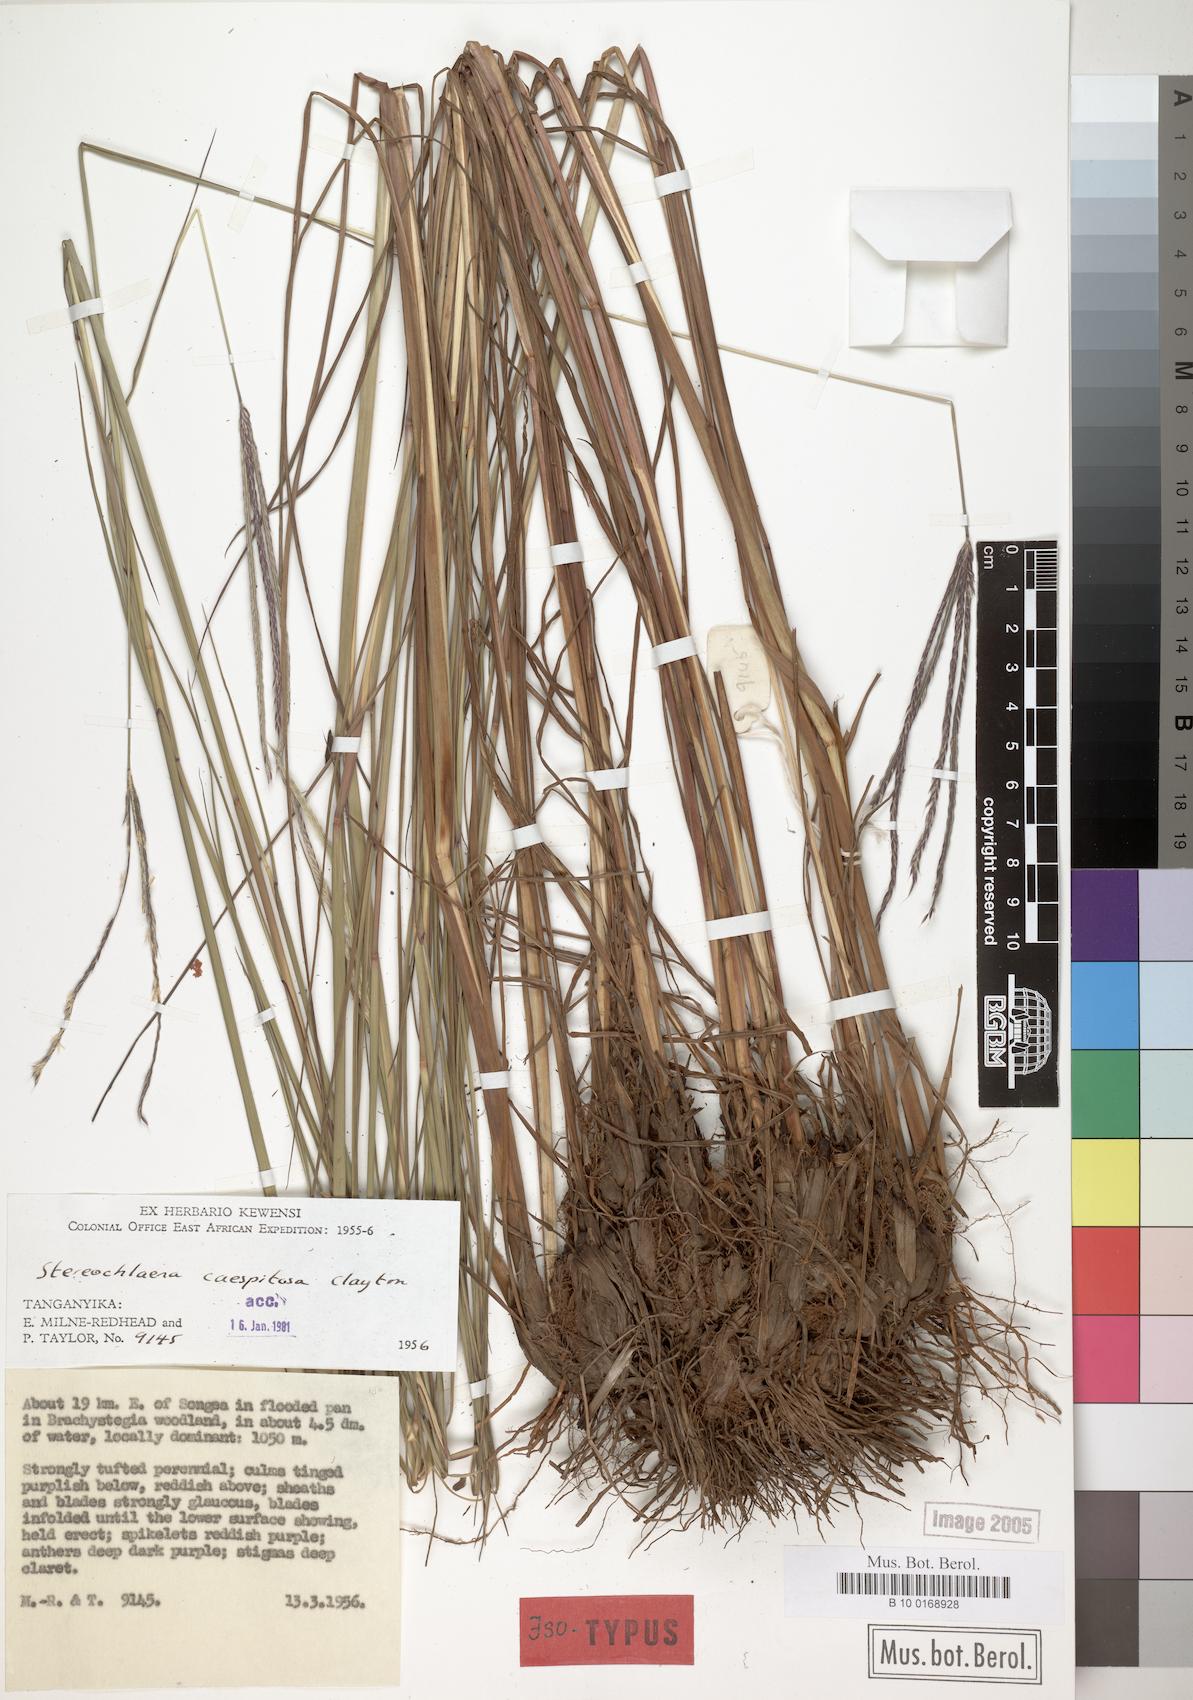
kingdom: Plantae
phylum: Tracheophyta
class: Liliopsida
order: Poales
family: Poaceae
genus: Stereochlaena
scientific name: Stereochlaena caespitosa
